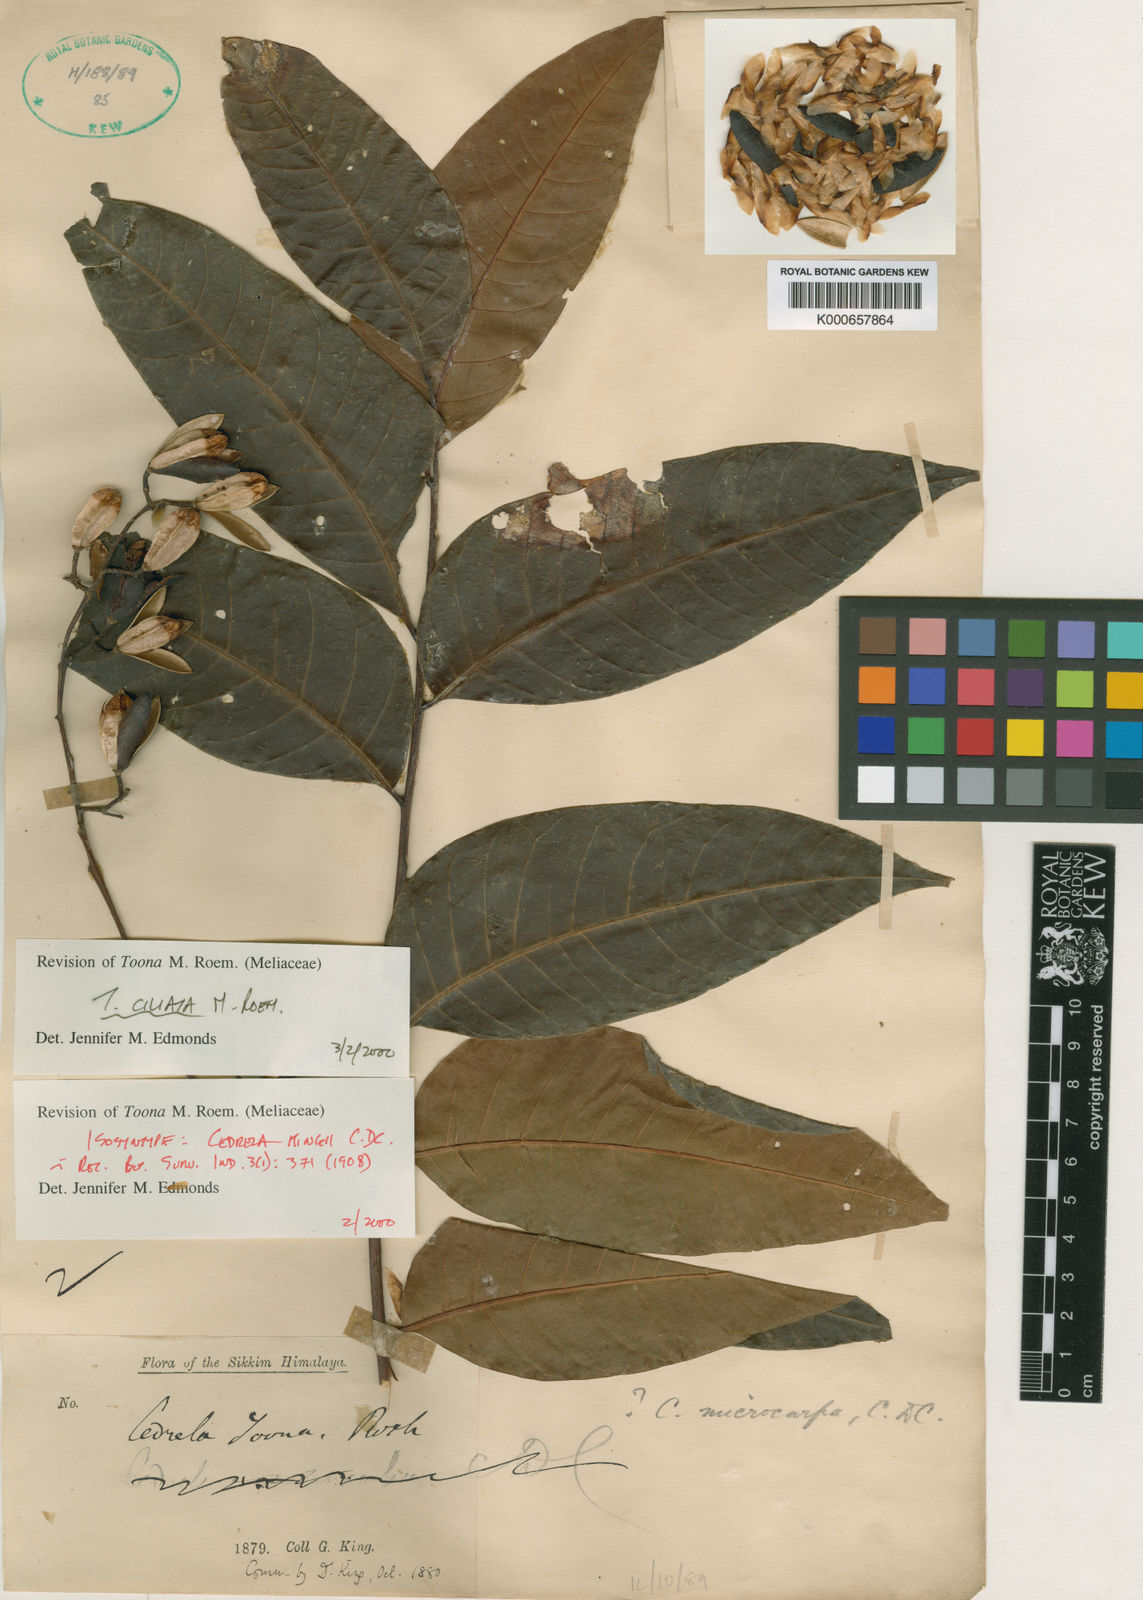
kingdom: Plantae
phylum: Tracheophyta
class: Magnoliopsida
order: Sapindales
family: Meliaceae
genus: Toona
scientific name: Toona ciliata
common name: Australian redcedar
